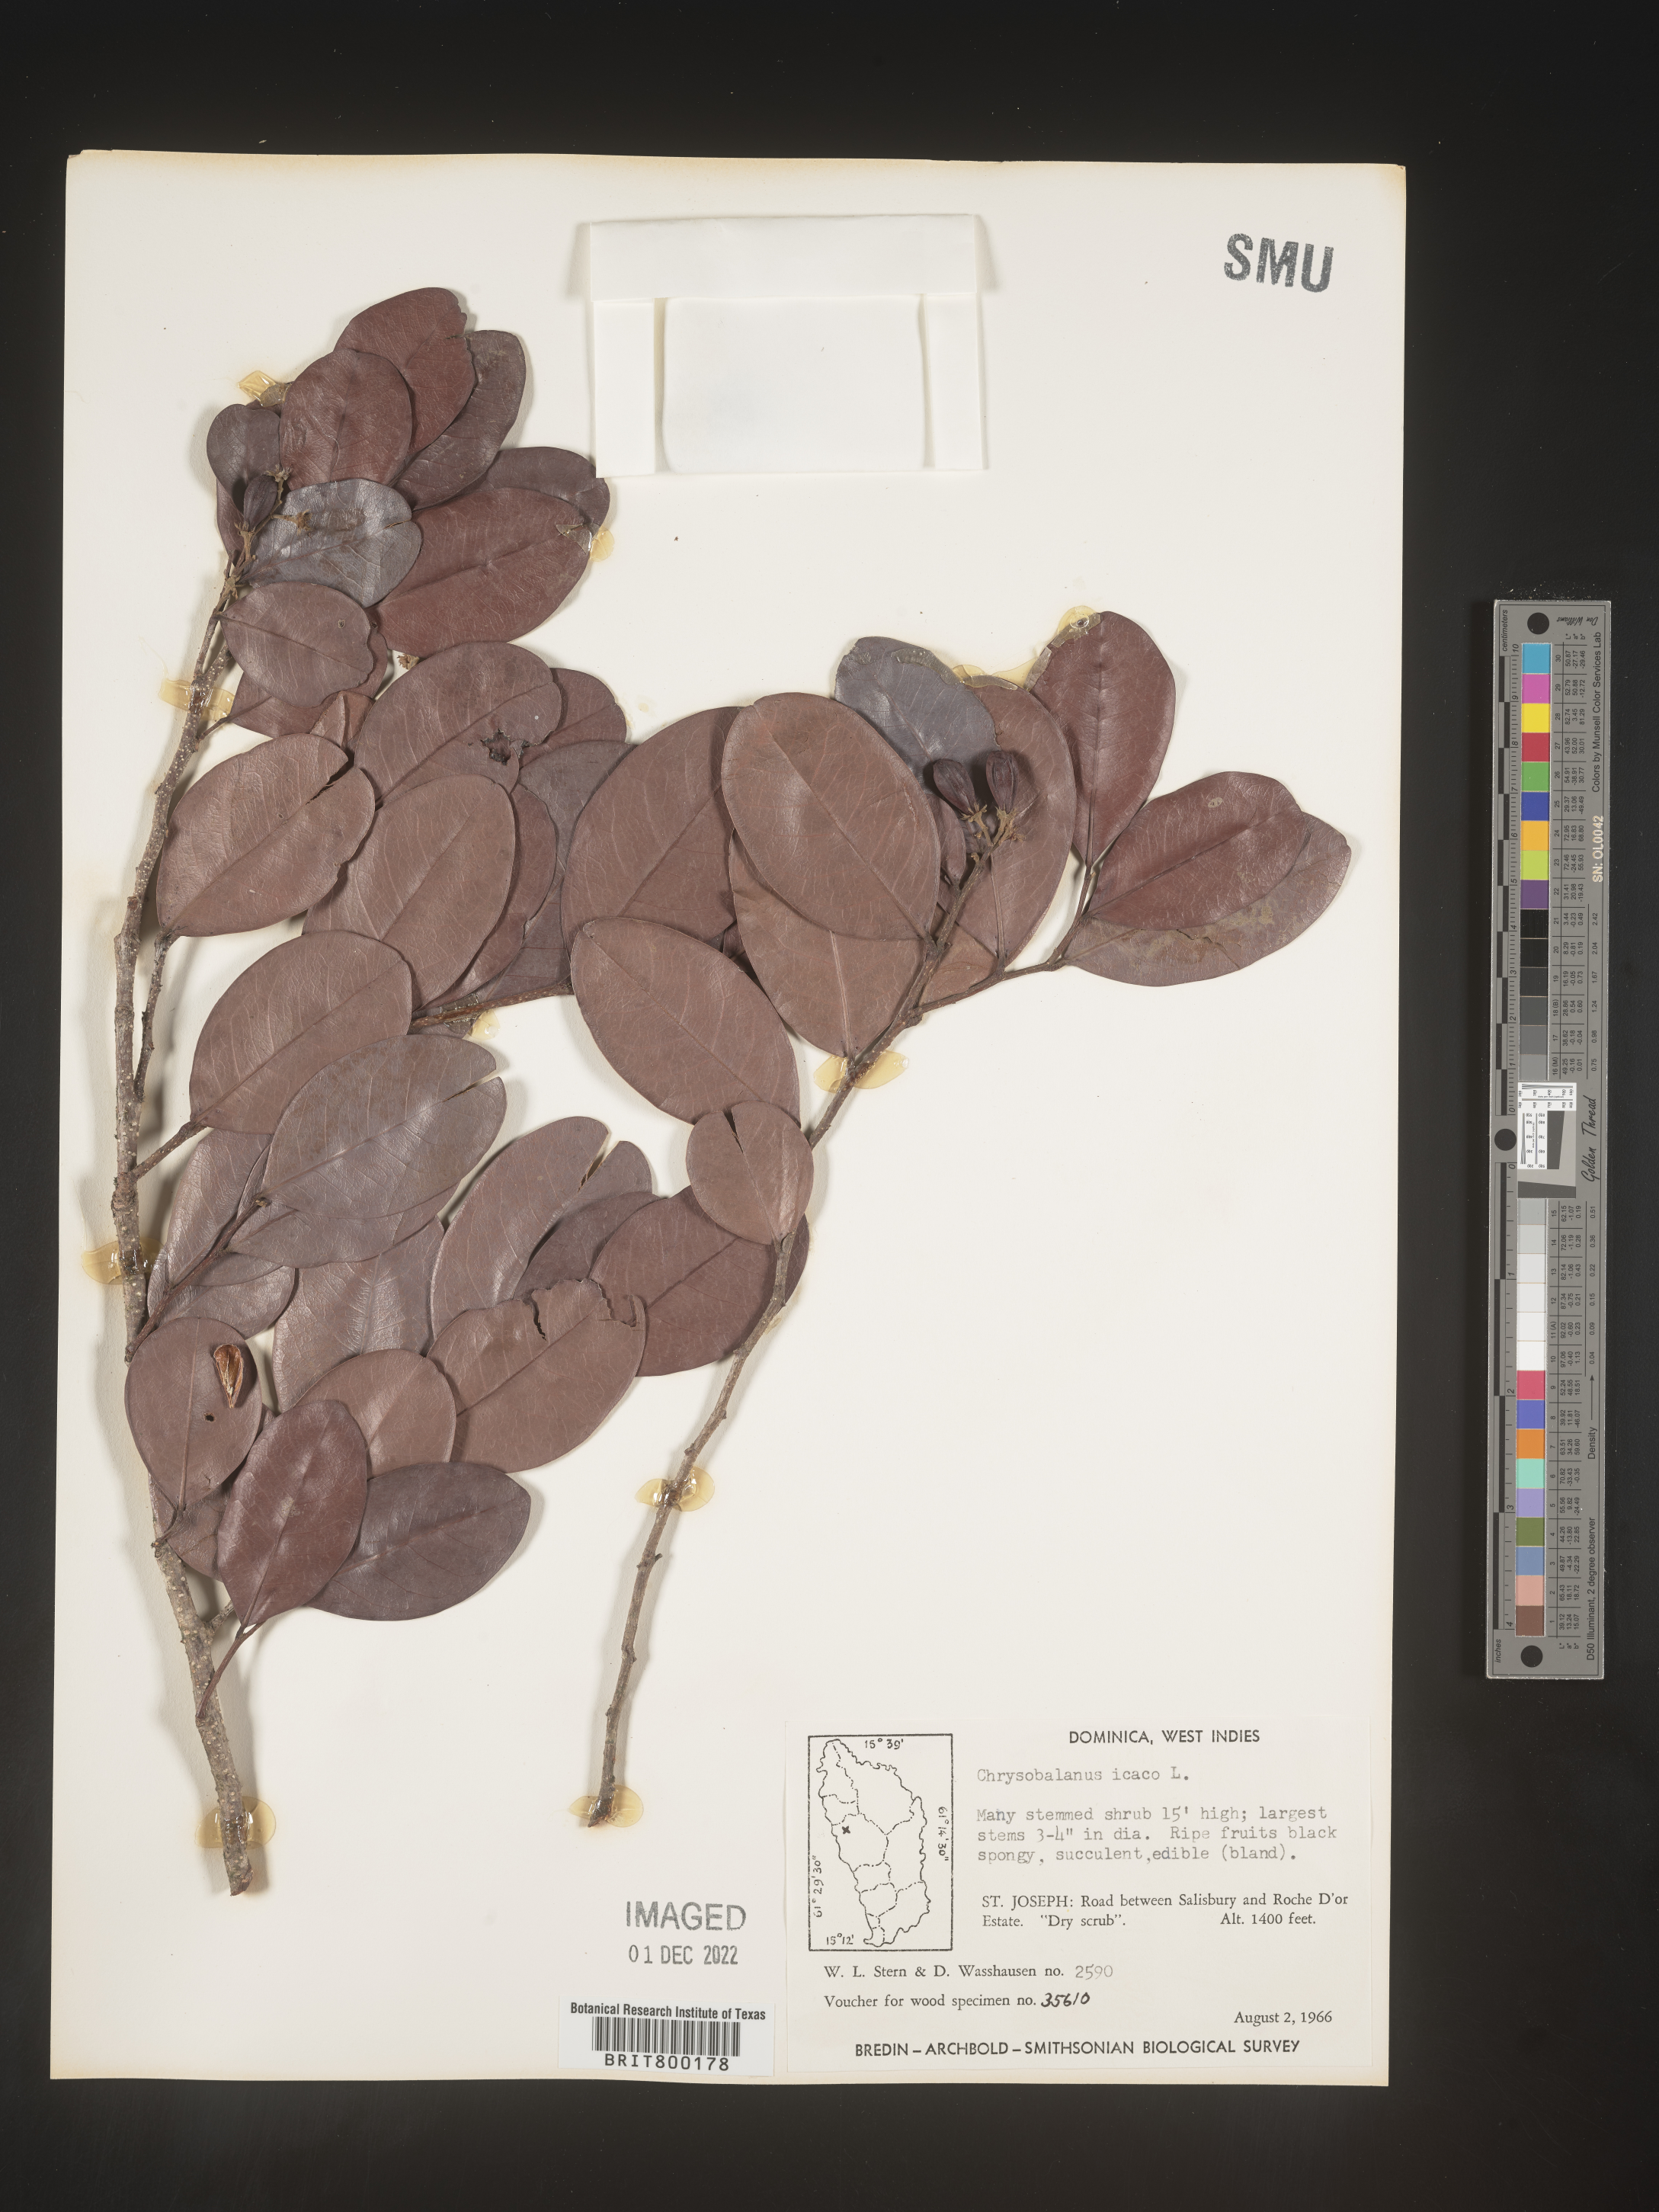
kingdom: Plantae
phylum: Tracheophyta
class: Magnoliopsida
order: Malpighiales
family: Chrysobalanaceae
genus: Chrysobalanus
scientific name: Chrysobalanus
